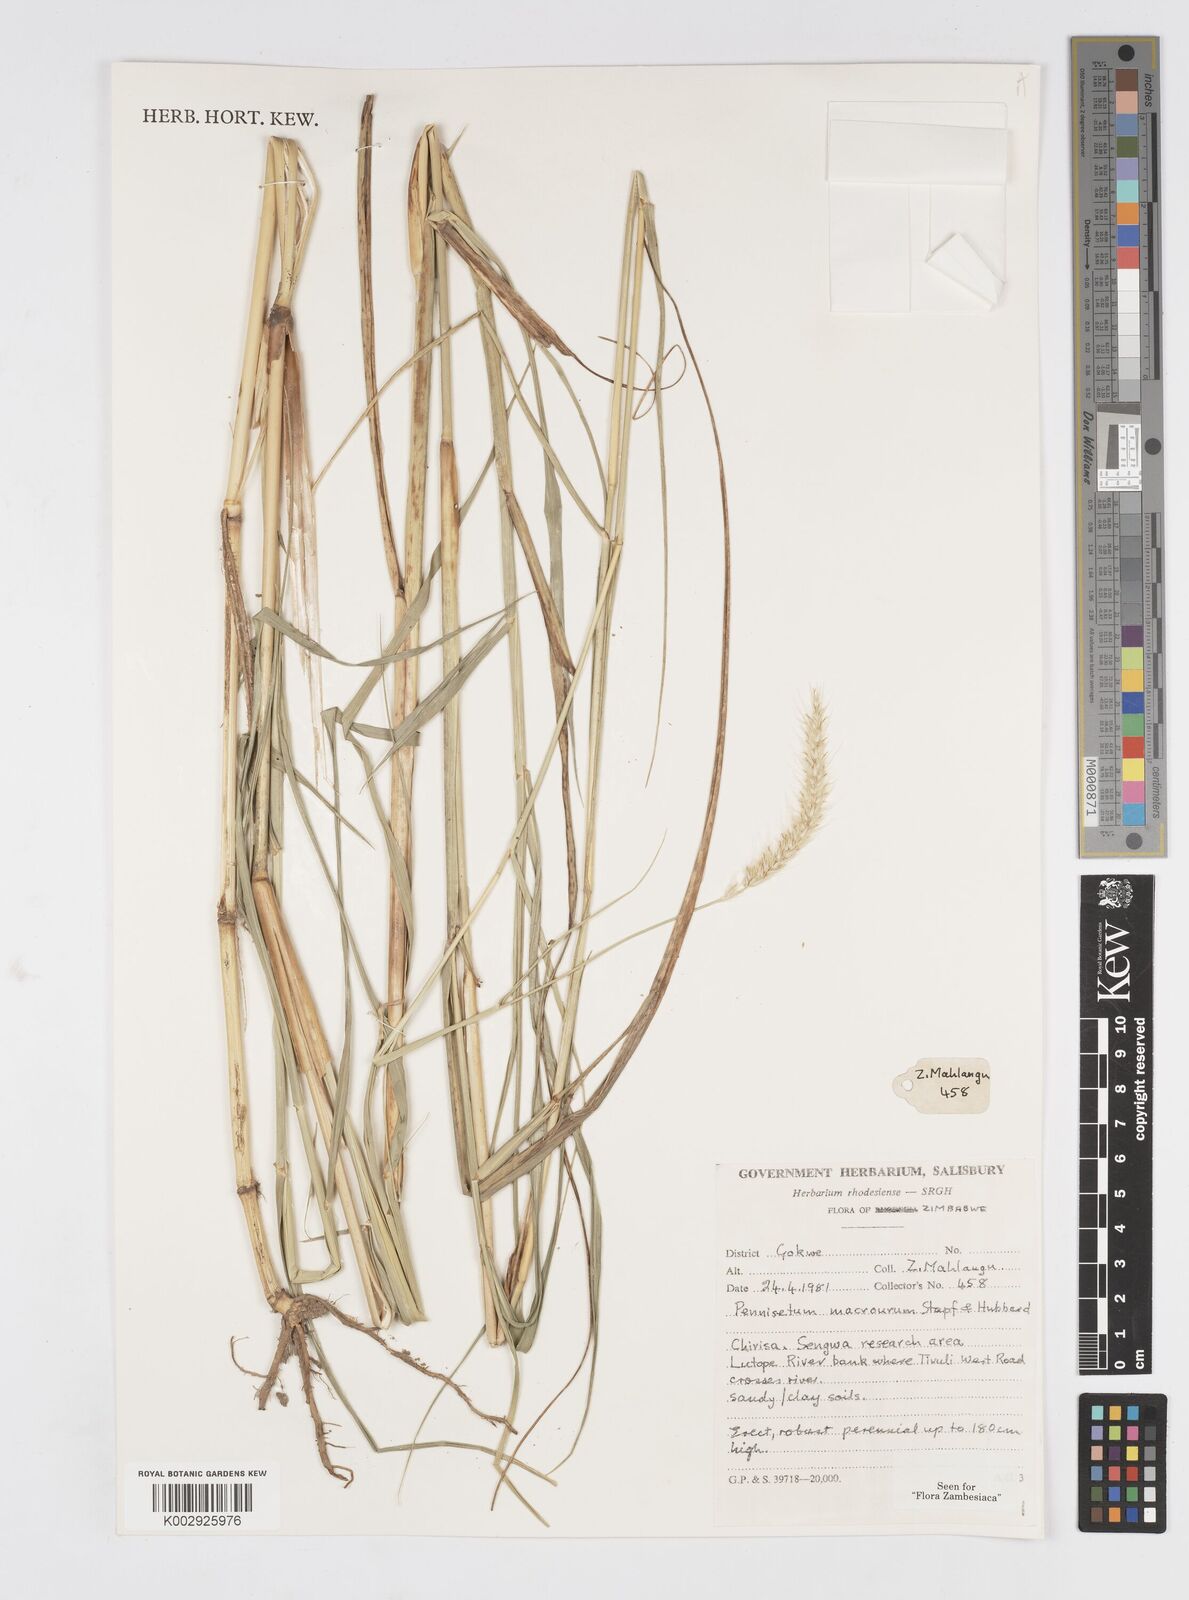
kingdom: Plantae
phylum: Tracheophyta
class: Liliopsida
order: Poales
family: Poaceae
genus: Cenchrus
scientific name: Cenchrus caudatus
